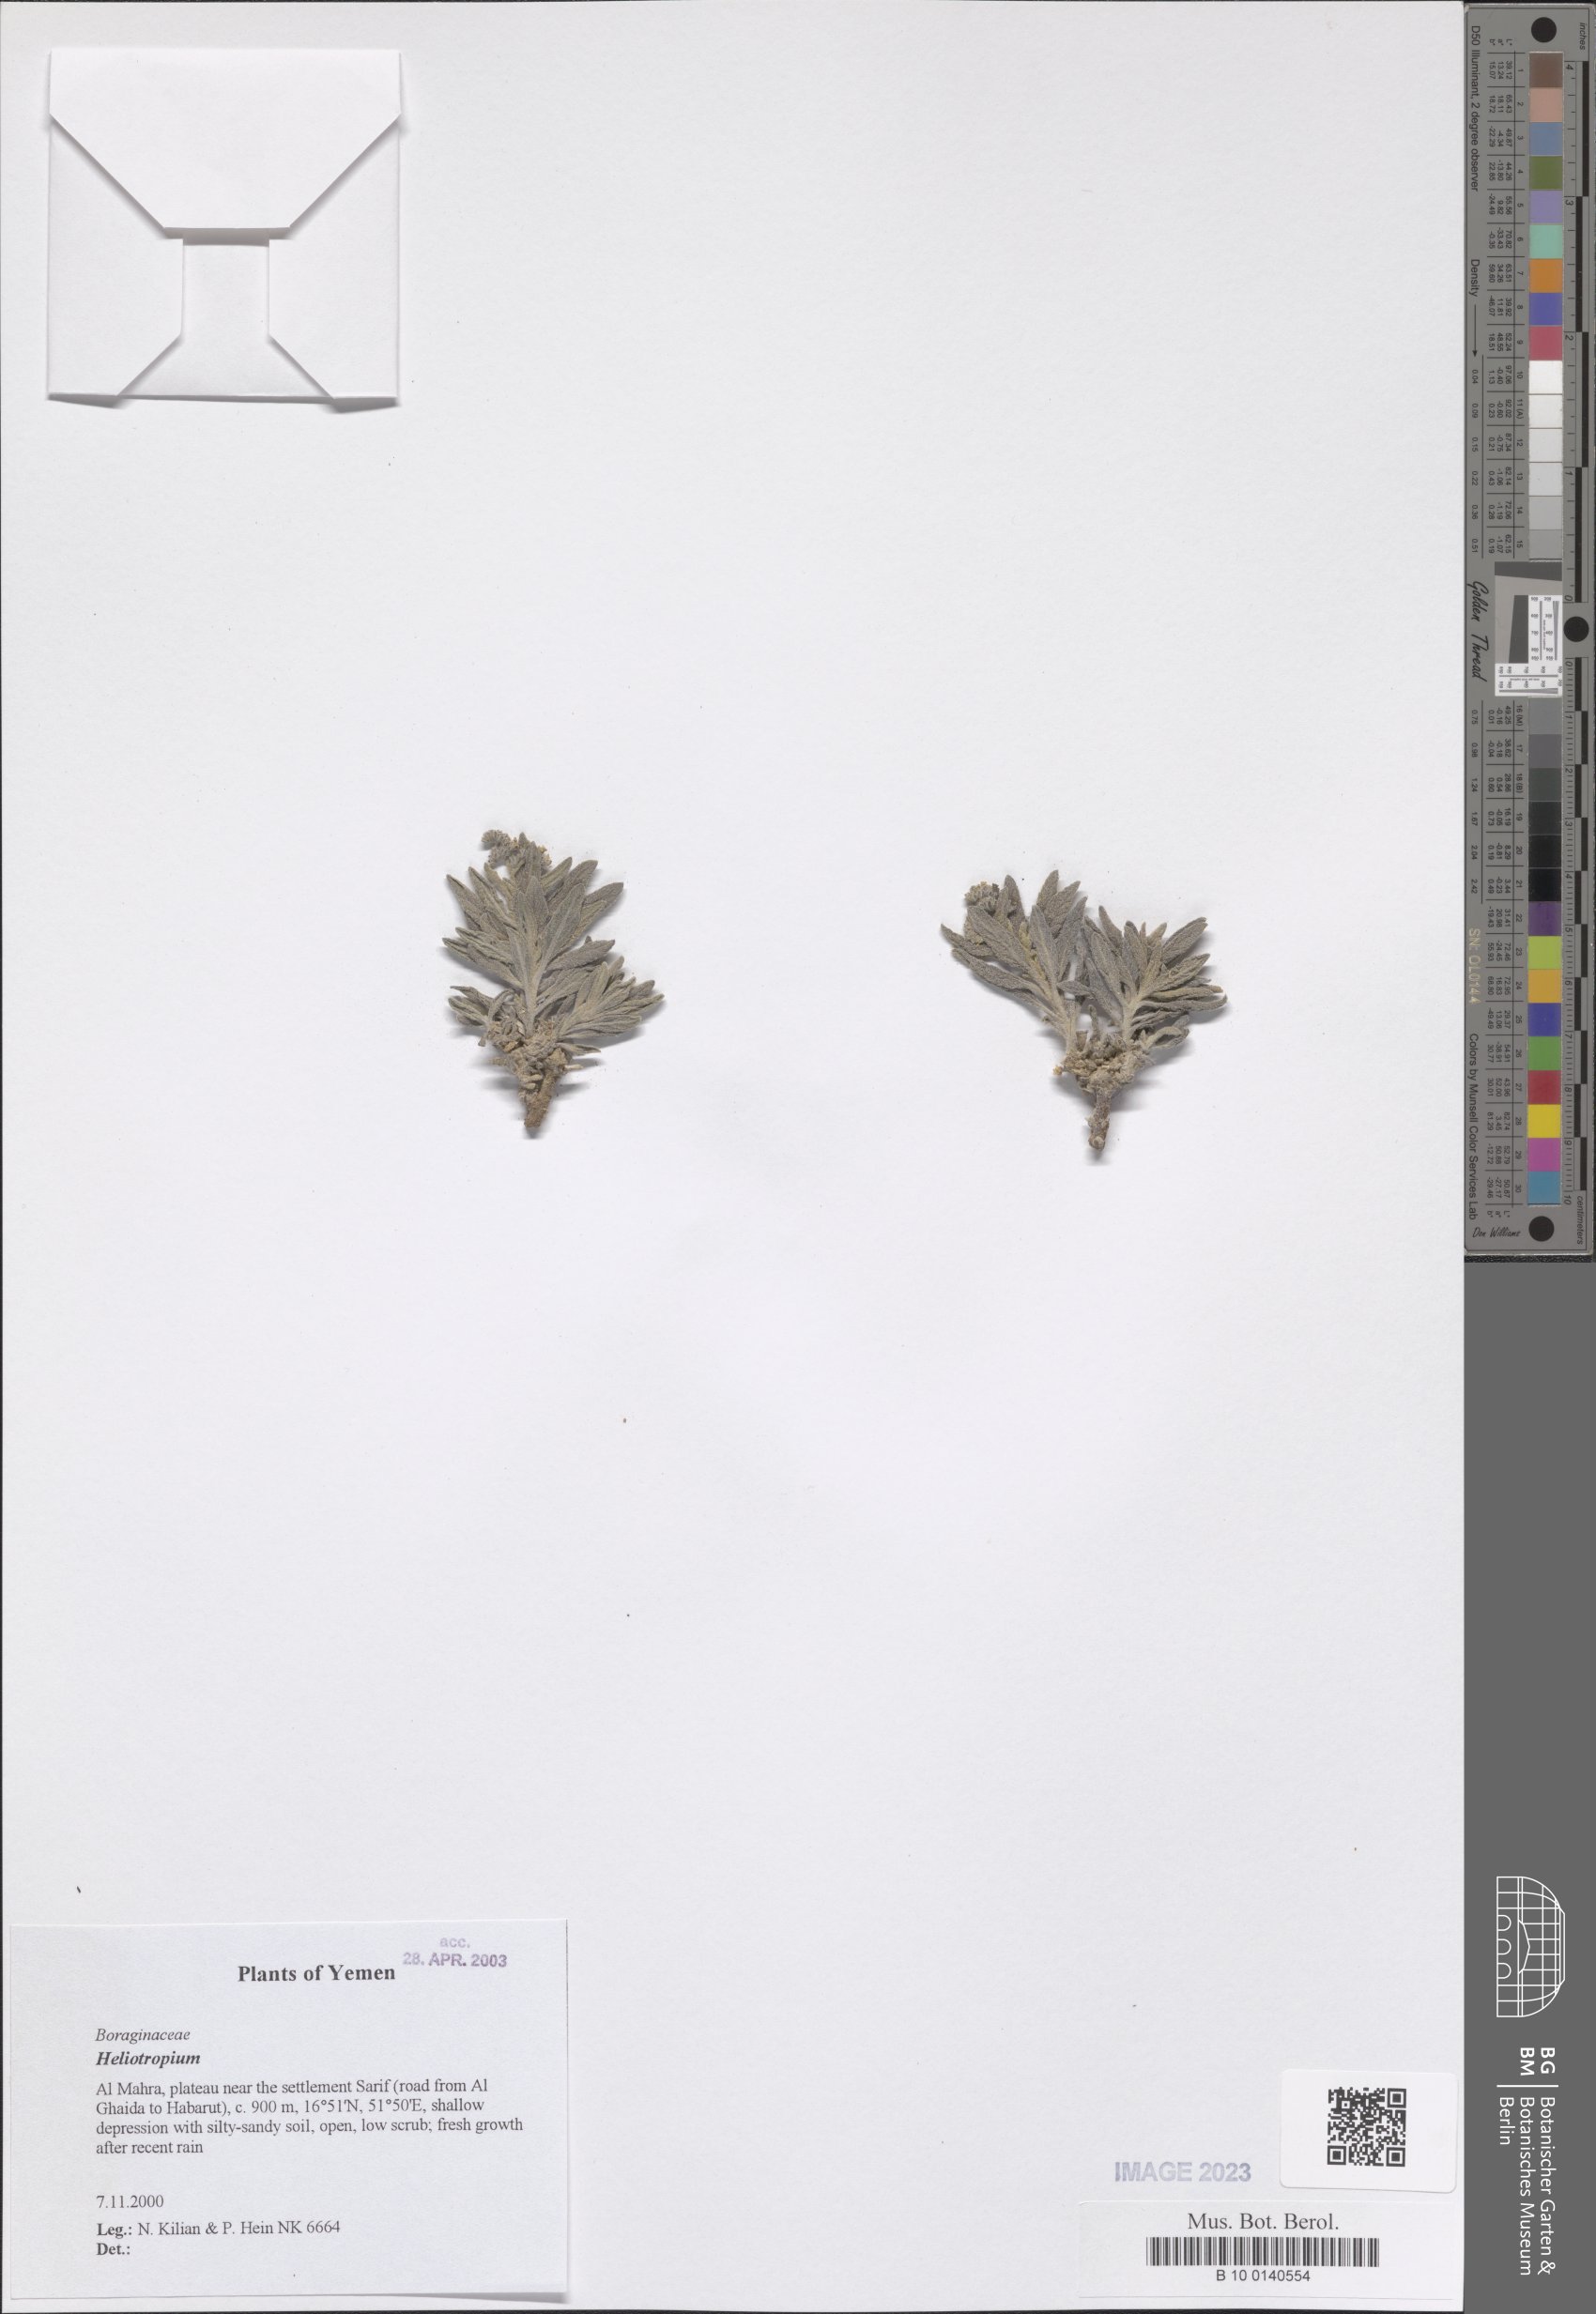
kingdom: Plantae
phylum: Tracheophyta
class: Magnoliopsida
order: Boraginales
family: Heliotropiaceae
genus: Heliotropium
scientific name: Heliotropium
